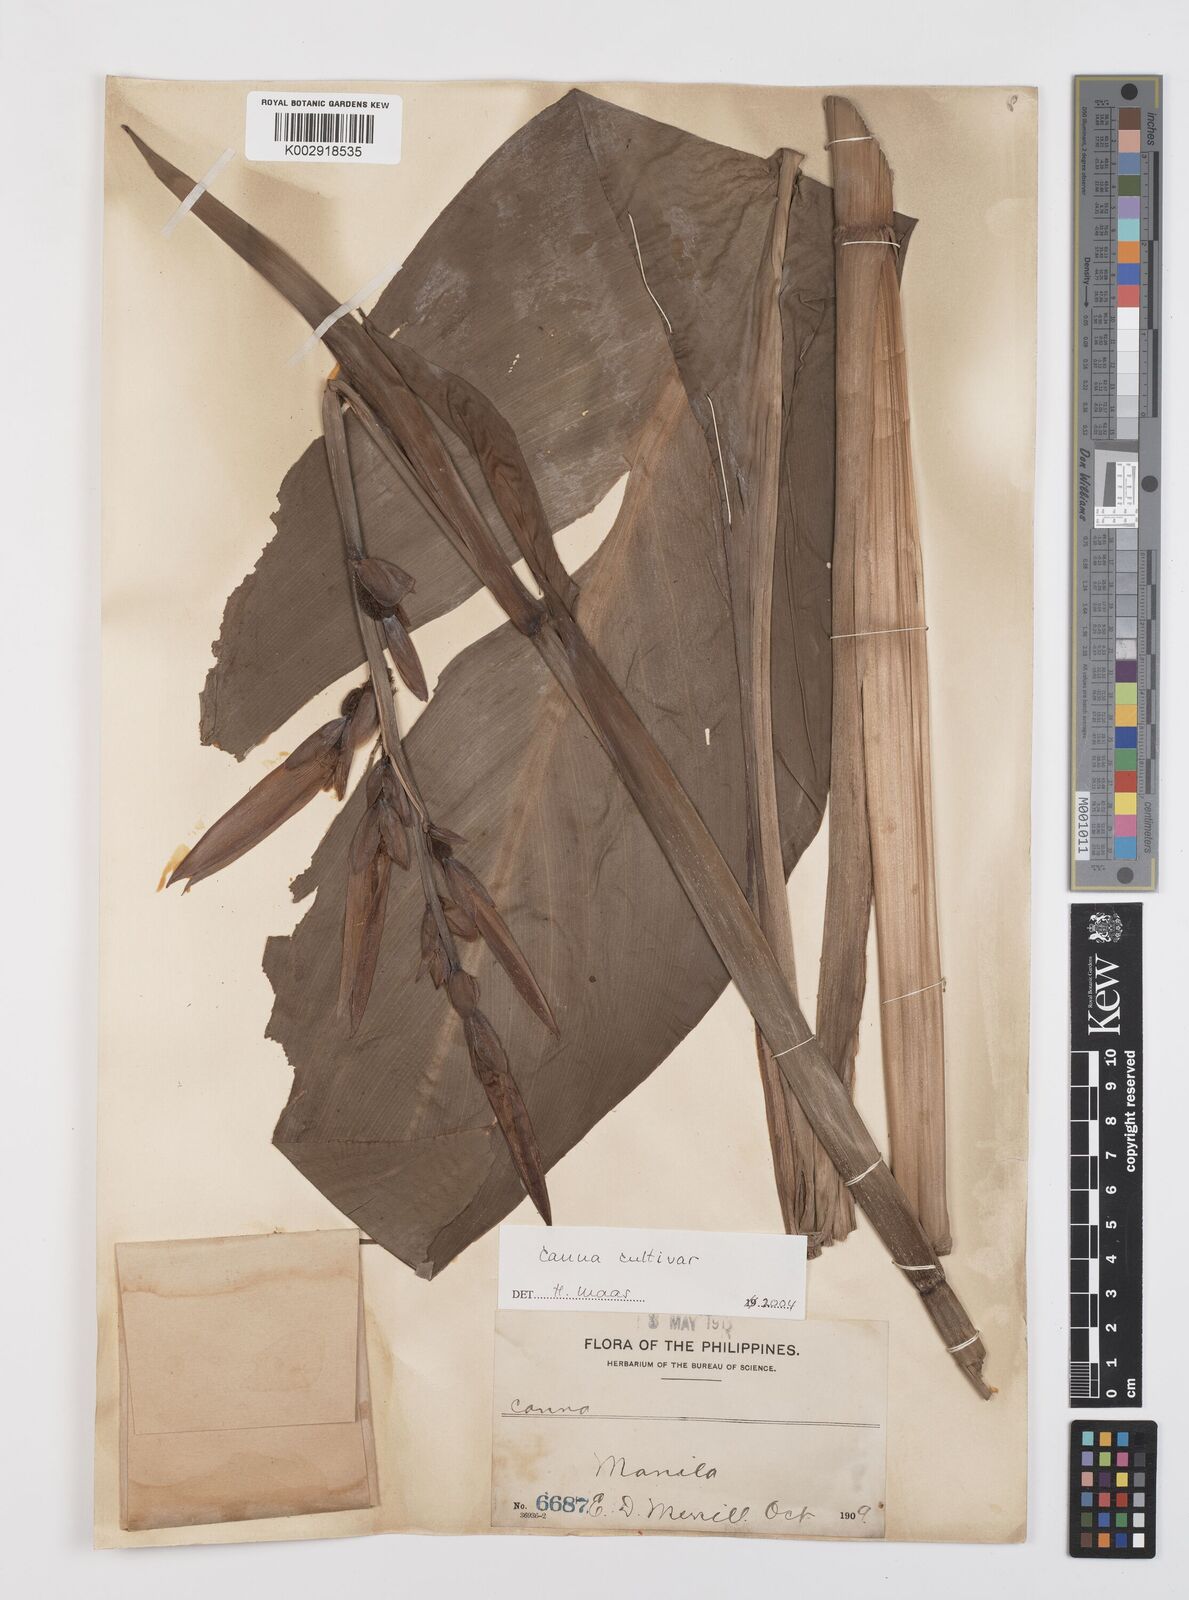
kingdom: Plantae
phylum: Tracheophyta
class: Liliopsida
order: Zingiberales
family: Cannaceae
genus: Canna
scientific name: Canna
